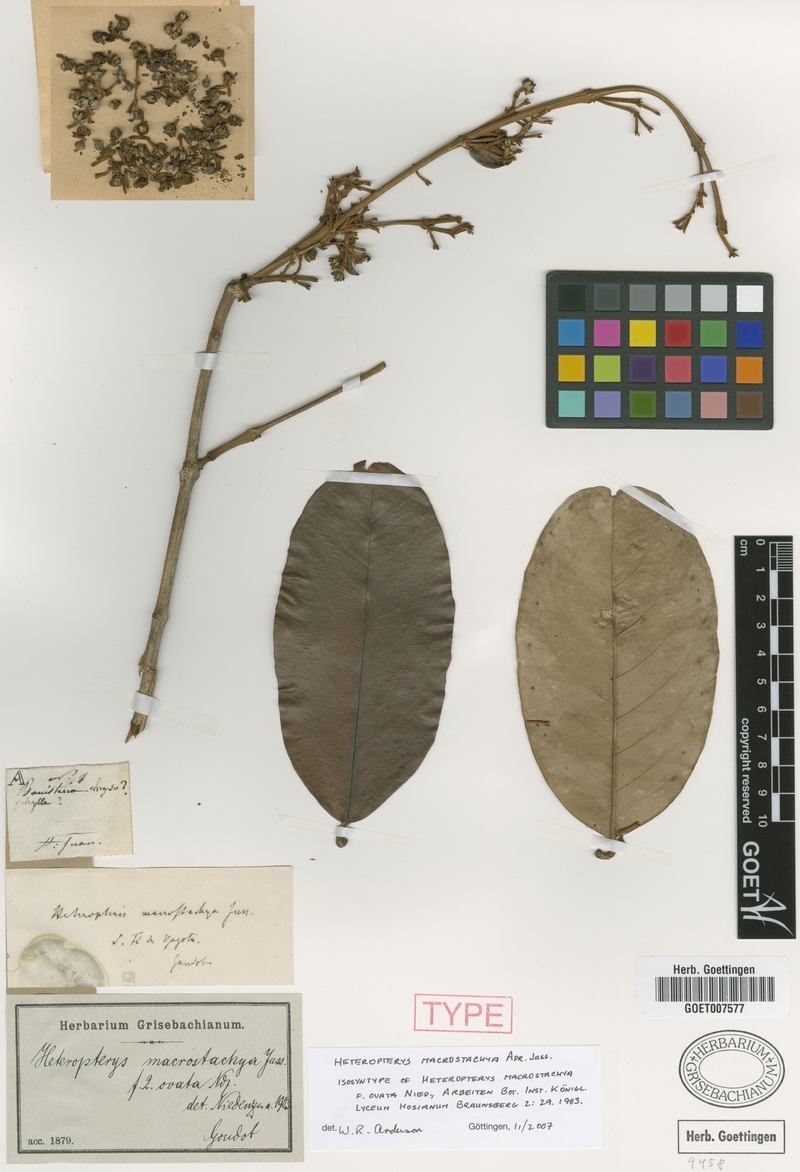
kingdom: Plantae
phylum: Tracheophyta
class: Magnoliopsida
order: Malpighiales
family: Malpighiaceae
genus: Heteropterys
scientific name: Heteropterys macrostachya
